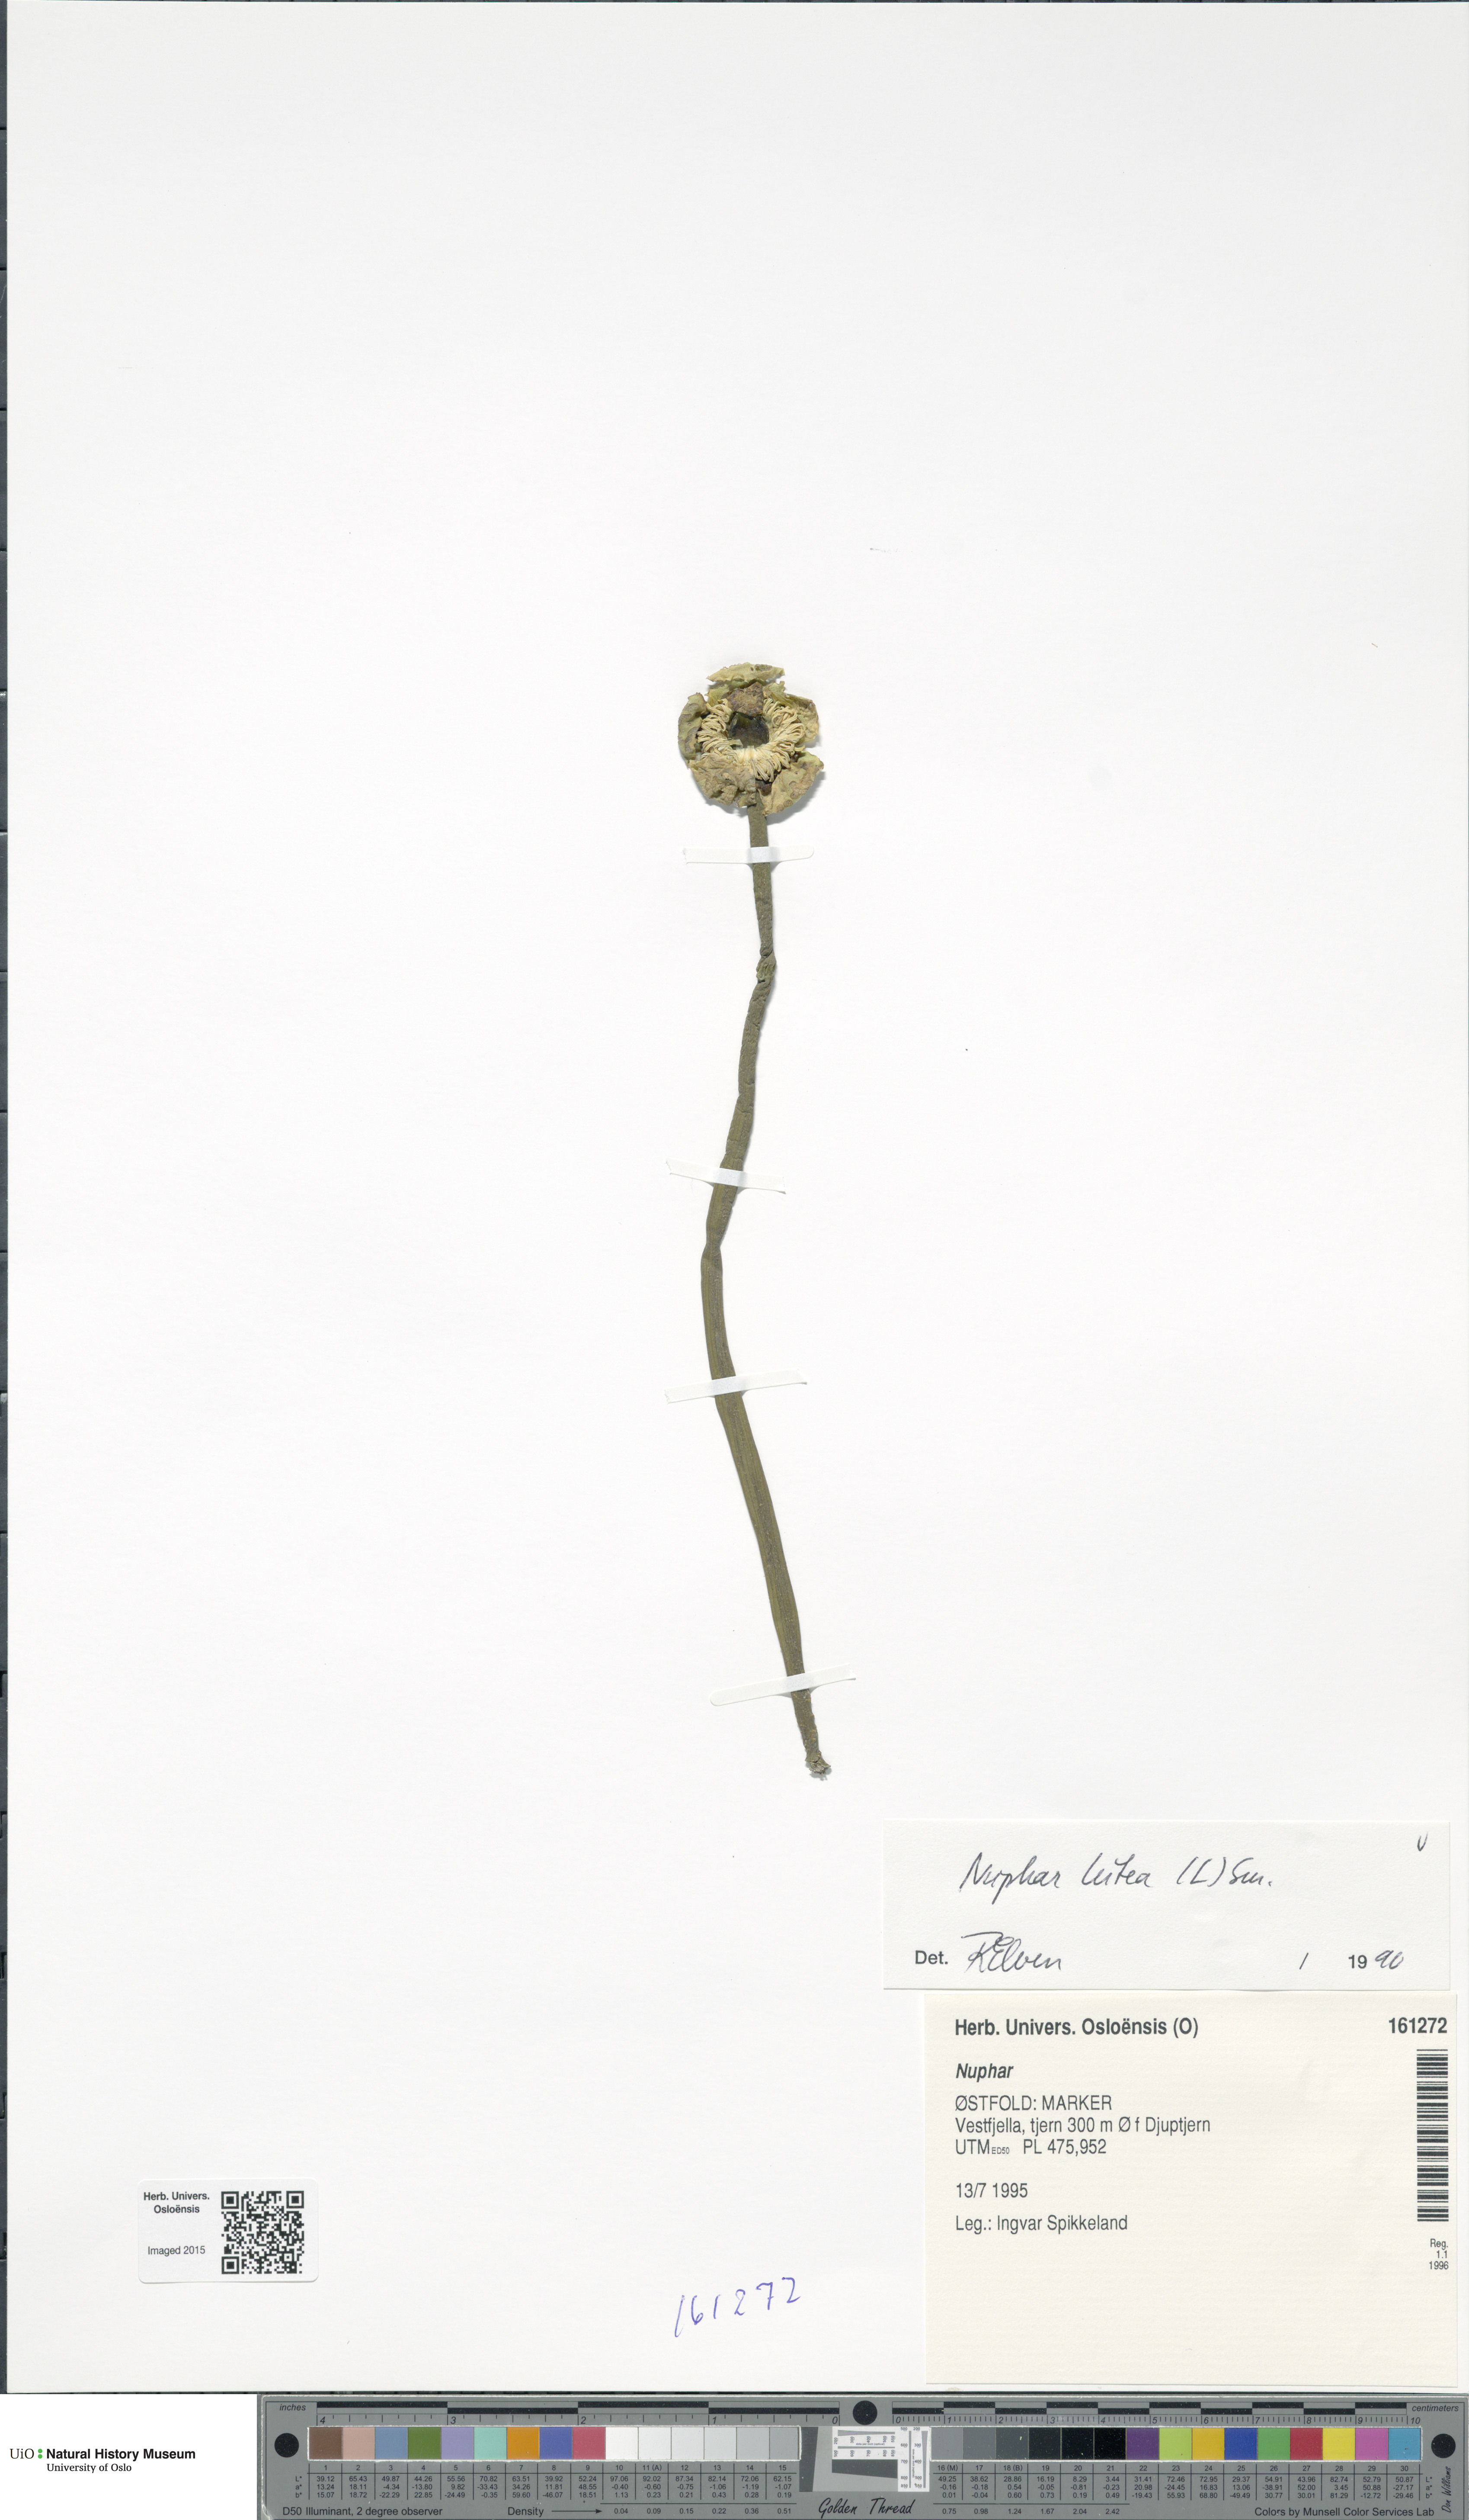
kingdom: Plantae
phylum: Tracheophyta
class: Magnoliopsida
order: Nymphaeales
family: Nymphaeaceae
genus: Nuphar
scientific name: Nuphar lutea
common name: Yellow water-lily
